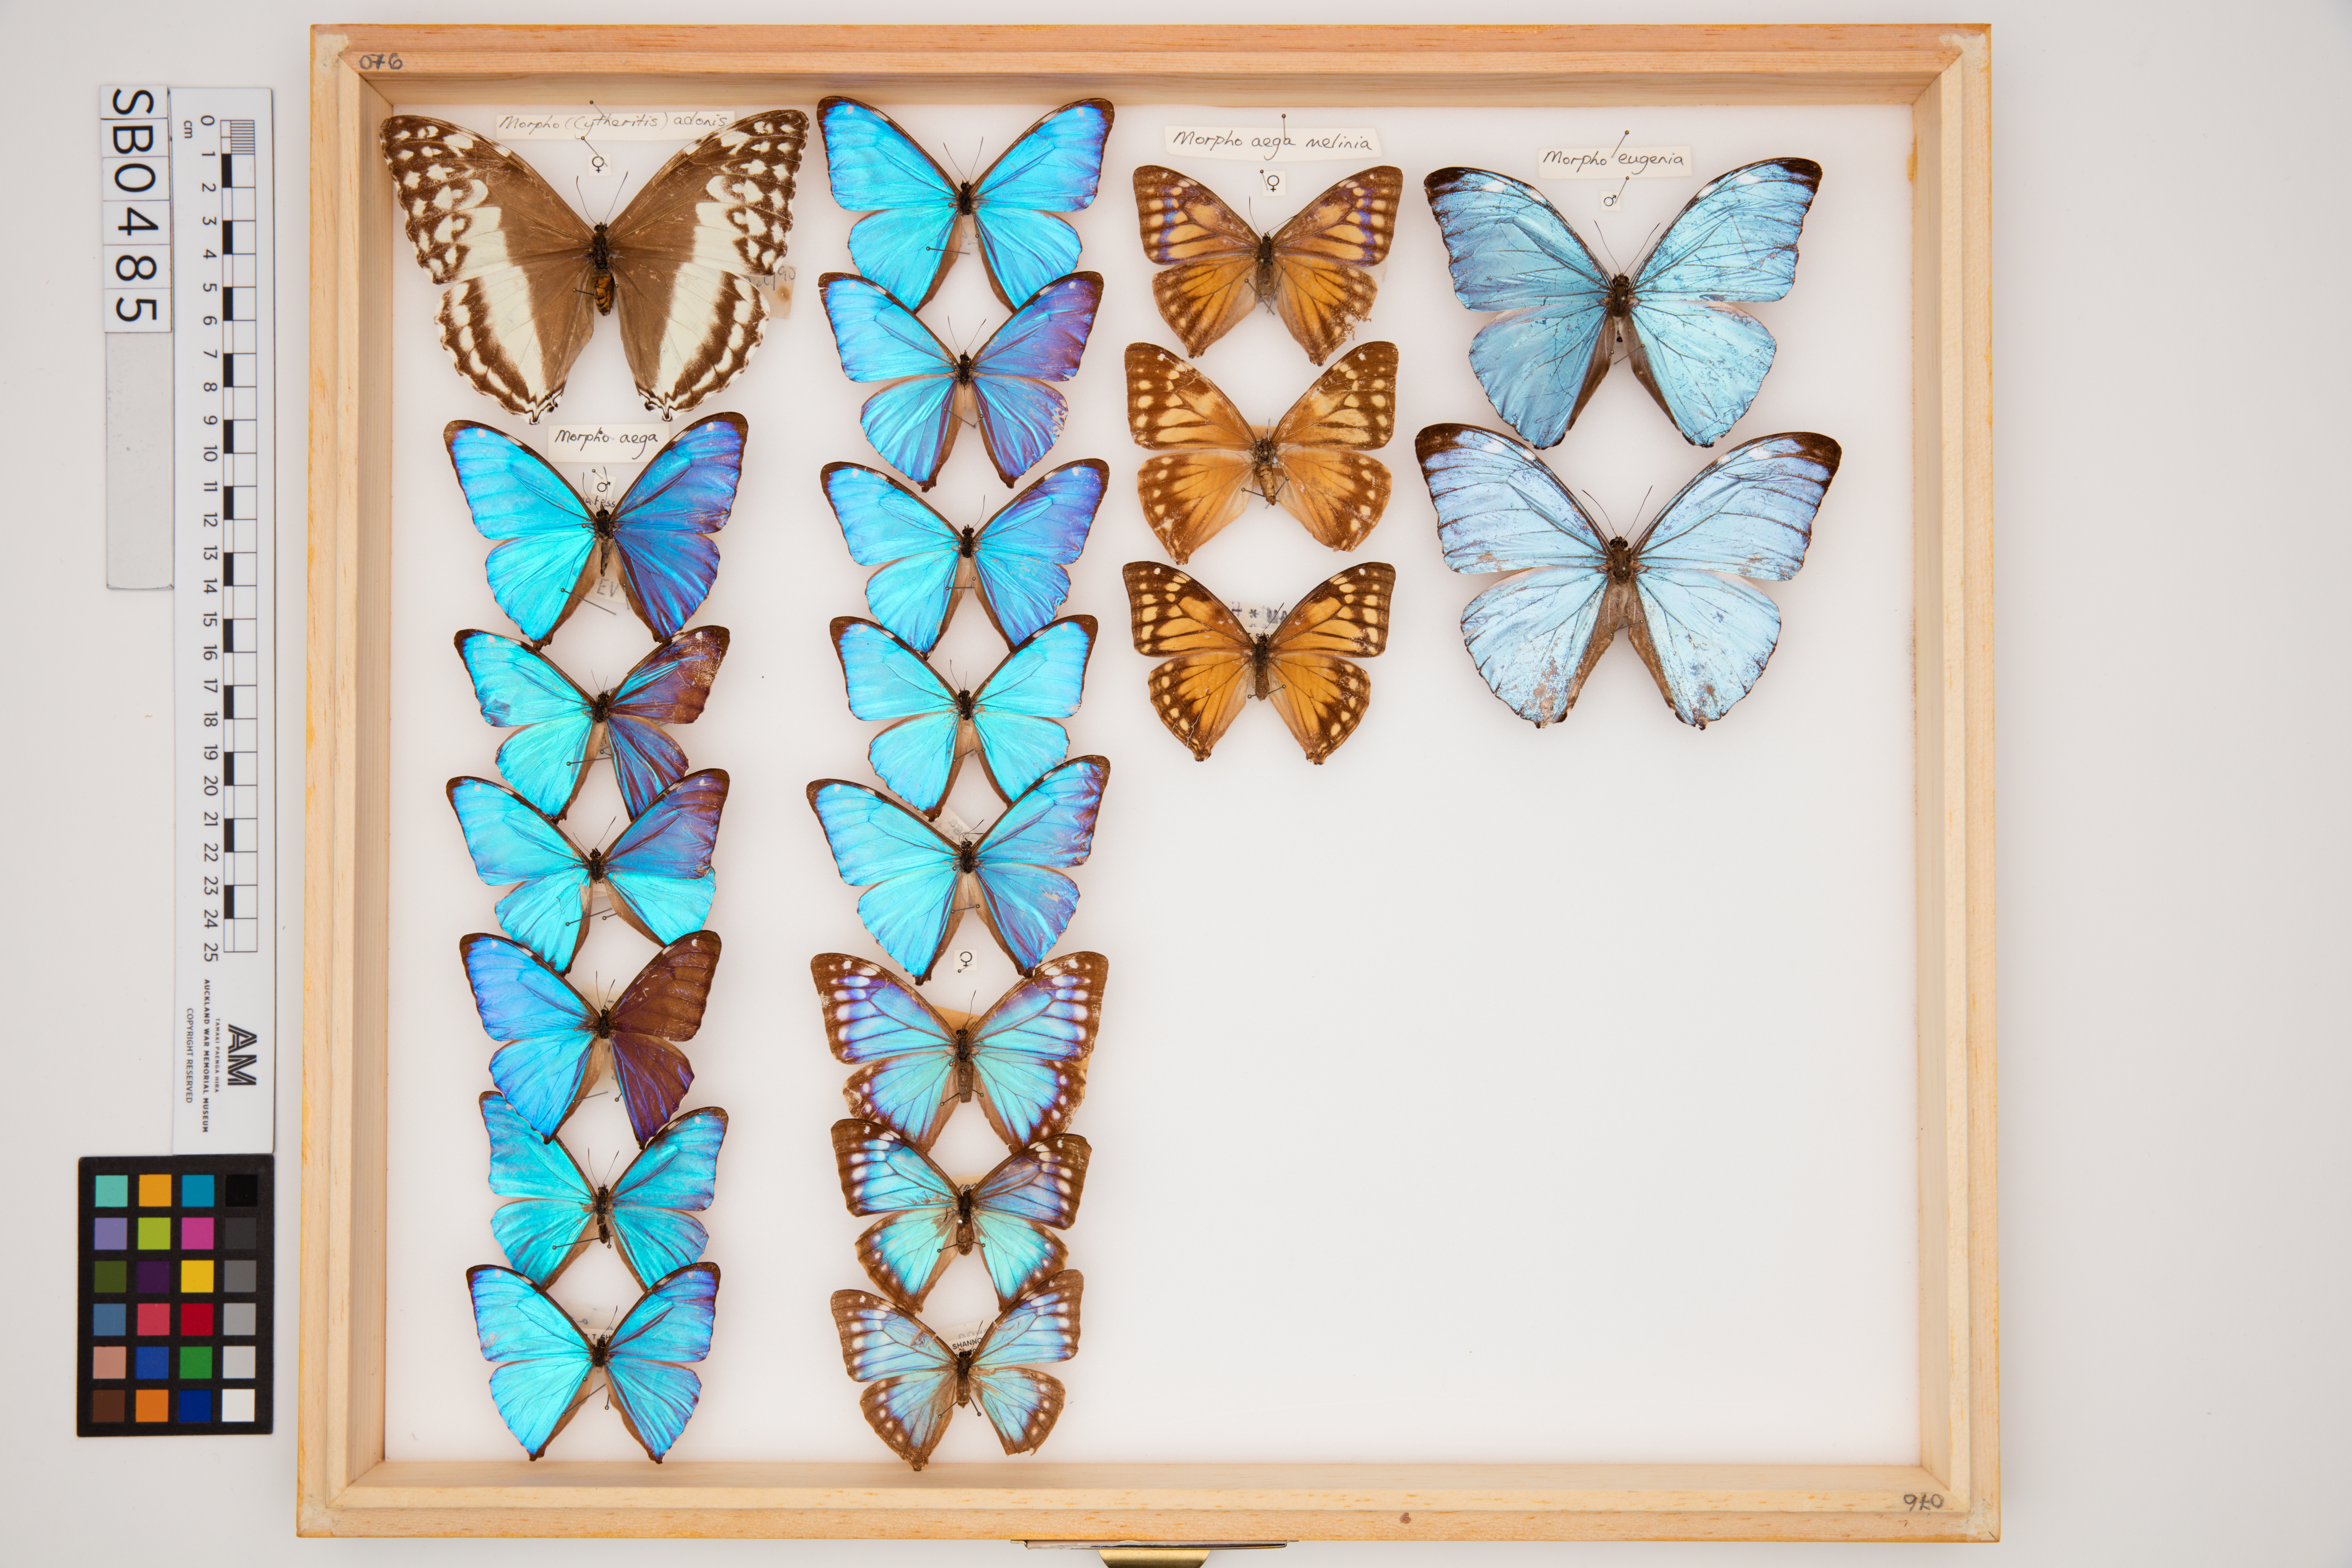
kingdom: Animalia
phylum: Arthropoda
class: Insecta
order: Lepidoptera
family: Nymphalidae
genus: Morpho
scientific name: Morpho aega
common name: Aega morpho
